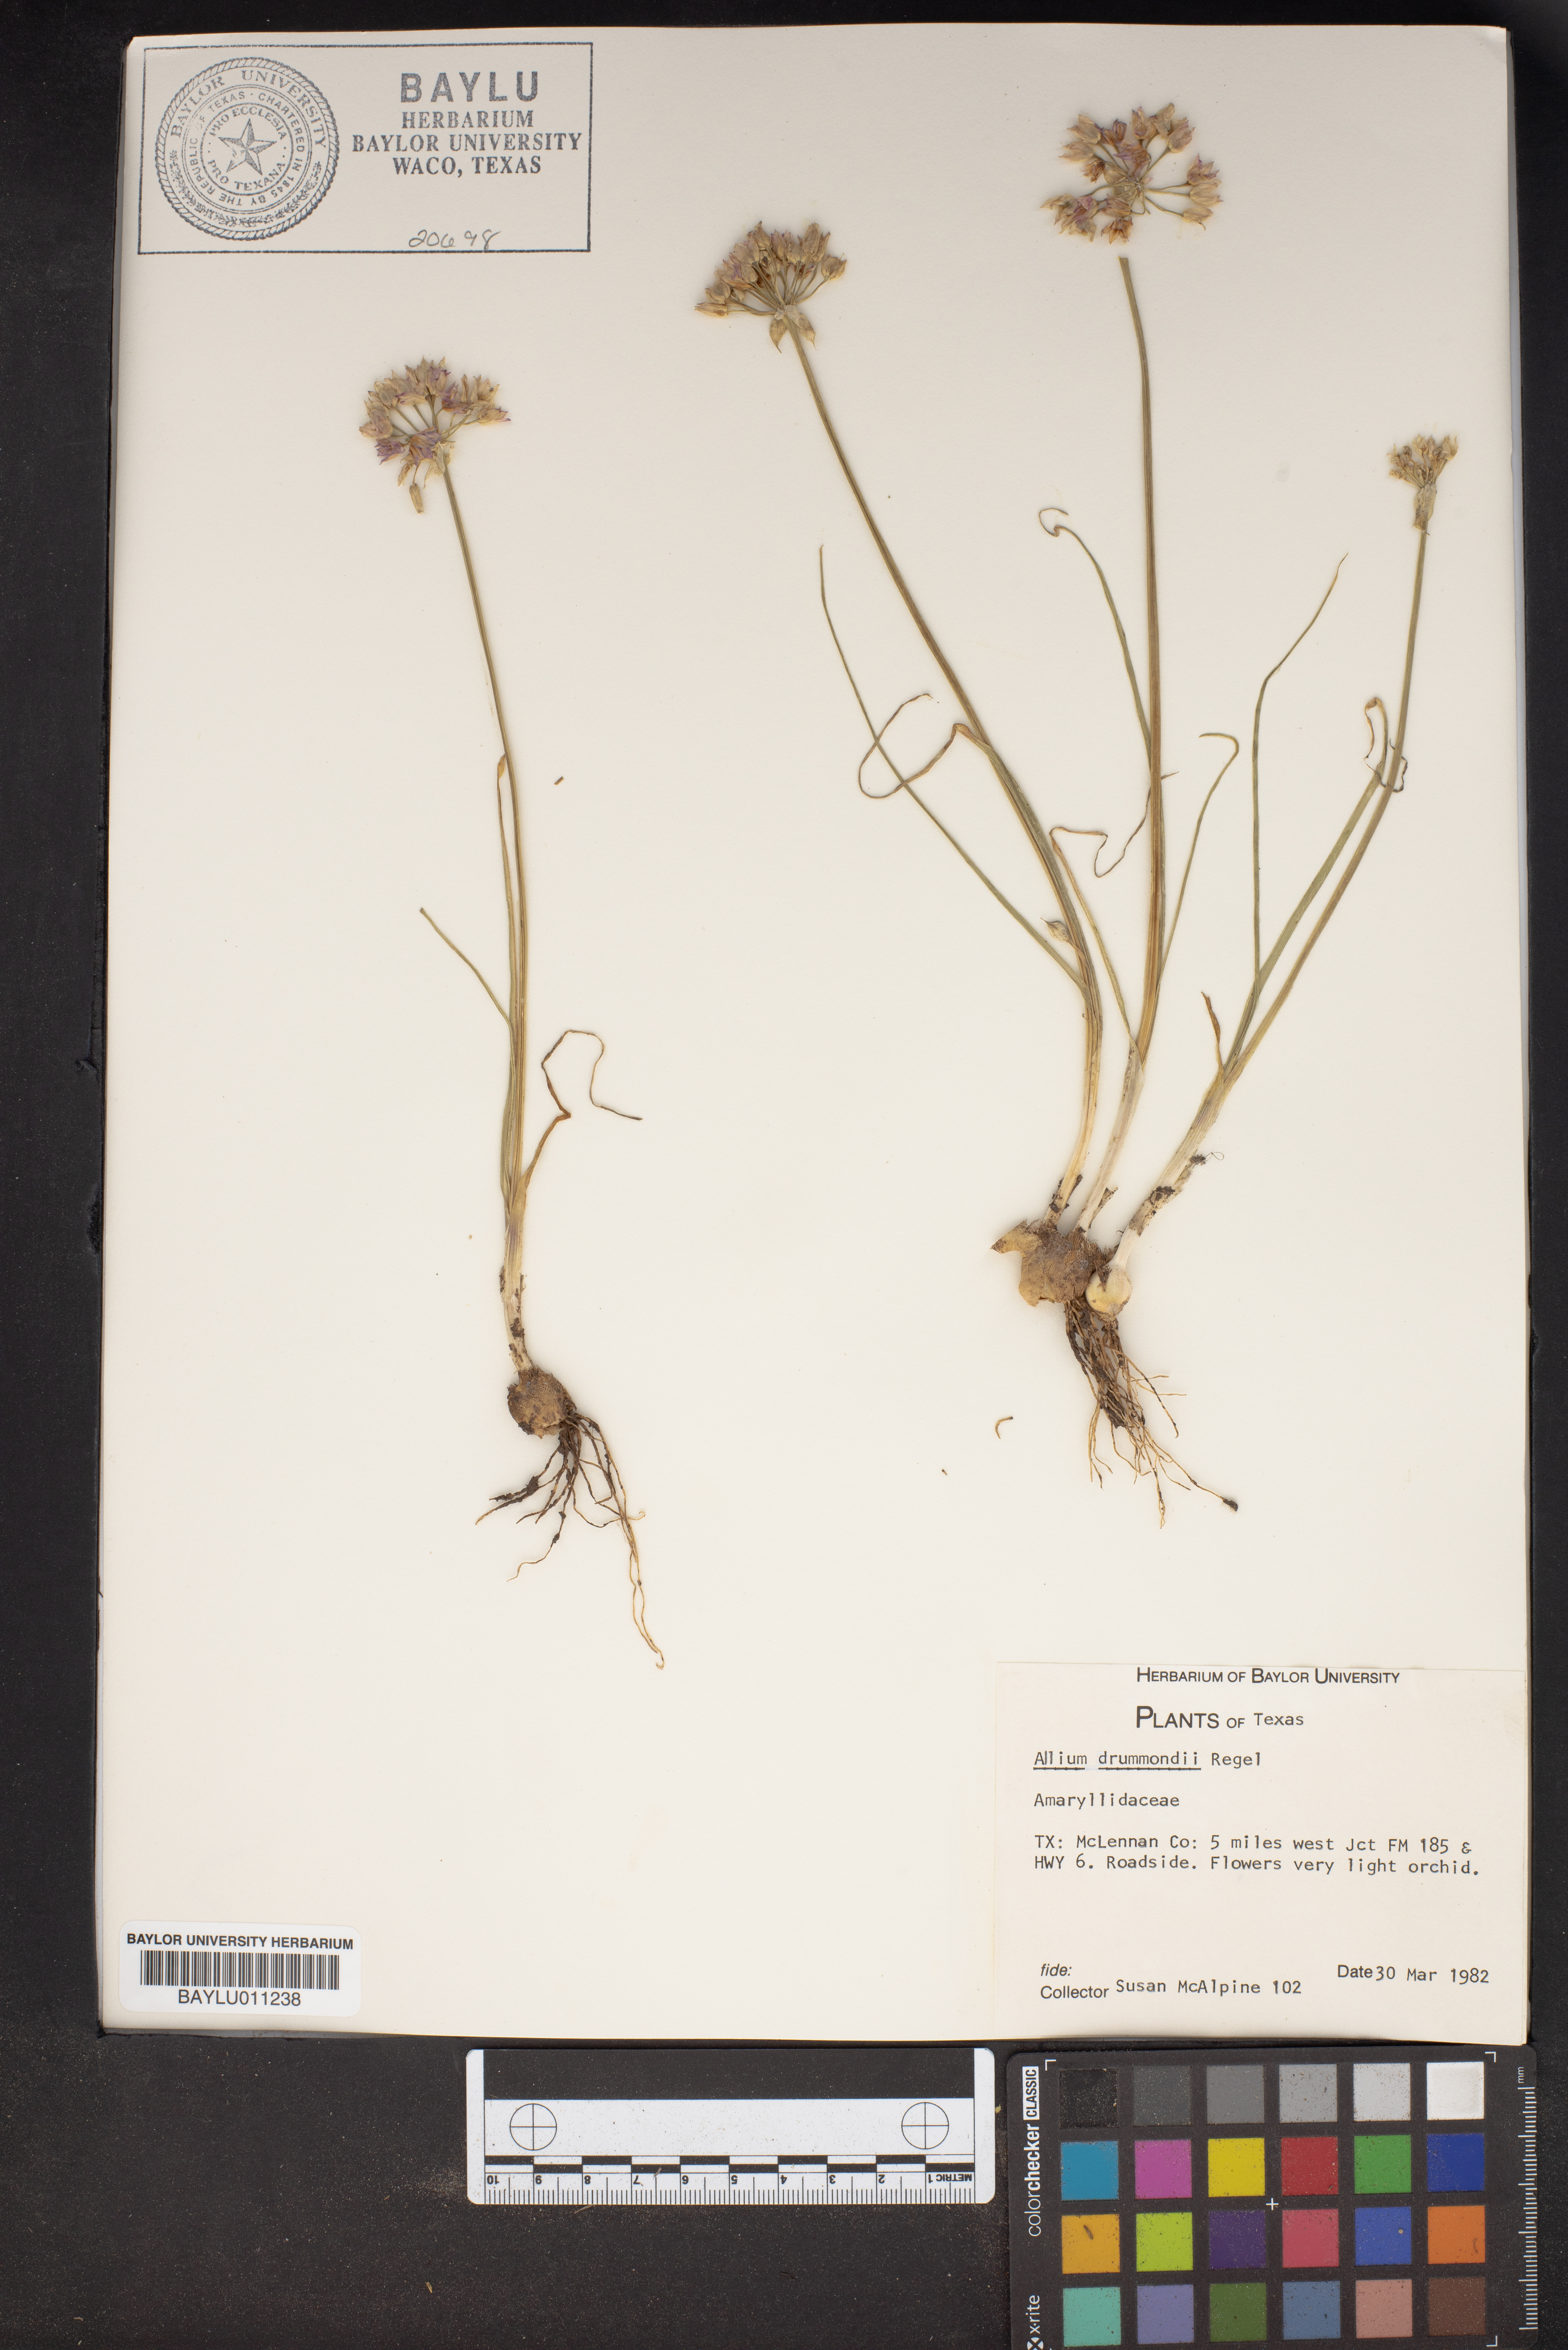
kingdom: Plantae
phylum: Tracheophyta
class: Liliopsida
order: Asparagales
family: Amaryllidaceae
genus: Allium
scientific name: Allium drummondii
